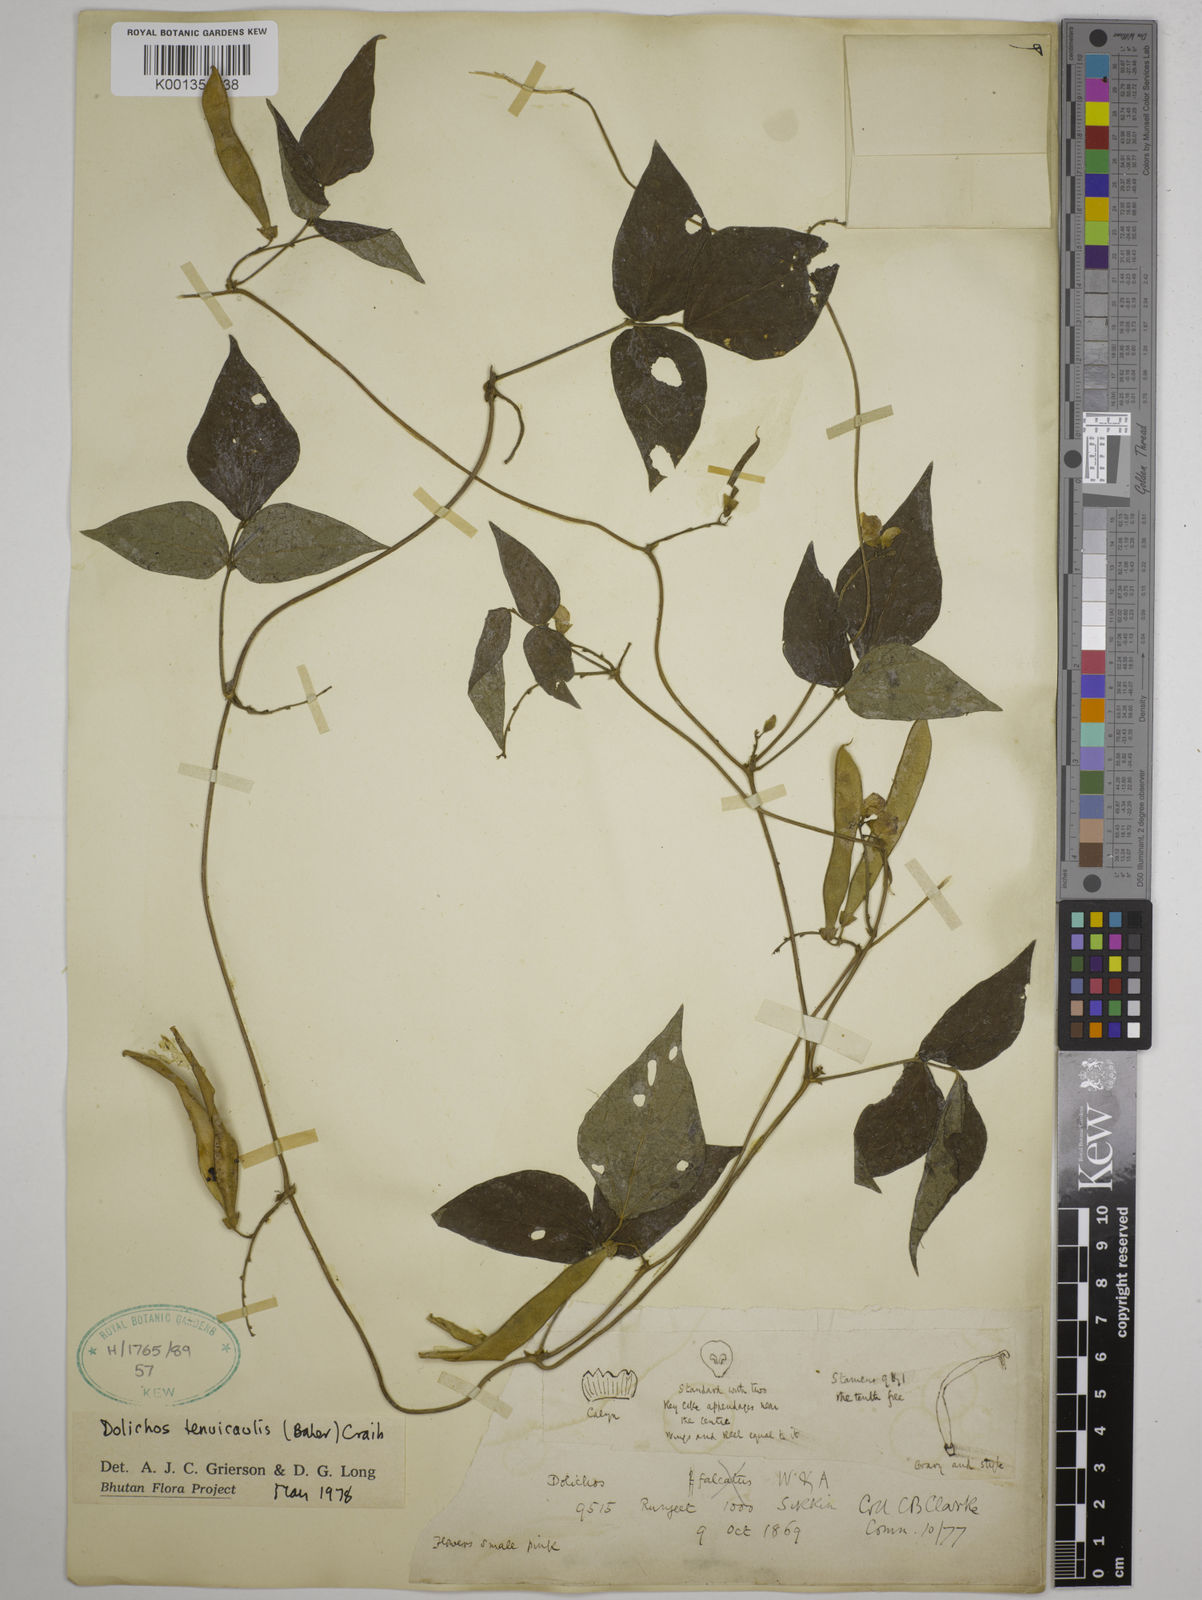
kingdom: Plantae
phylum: Tracheophyta
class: Magnoliopsida
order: Fabales
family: Fabaceae
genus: Dolichos
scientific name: Dolichos tenuicaulis
